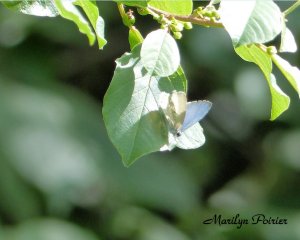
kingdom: Animalia
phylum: Arthropoda
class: Insecta
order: Lepidoptera
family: Lycaenidae
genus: Cyaniris
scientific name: Cyaniris neglecta
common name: Summer Azure
